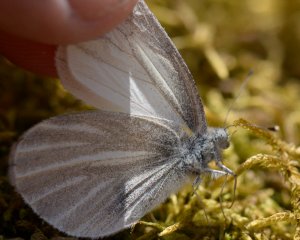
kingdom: Animalia
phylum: Arthropoda
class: Insecta
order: Lepidoptera
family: Pieridae
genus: Pieris
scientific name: Pieris virginiensis
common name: West Virginia White
